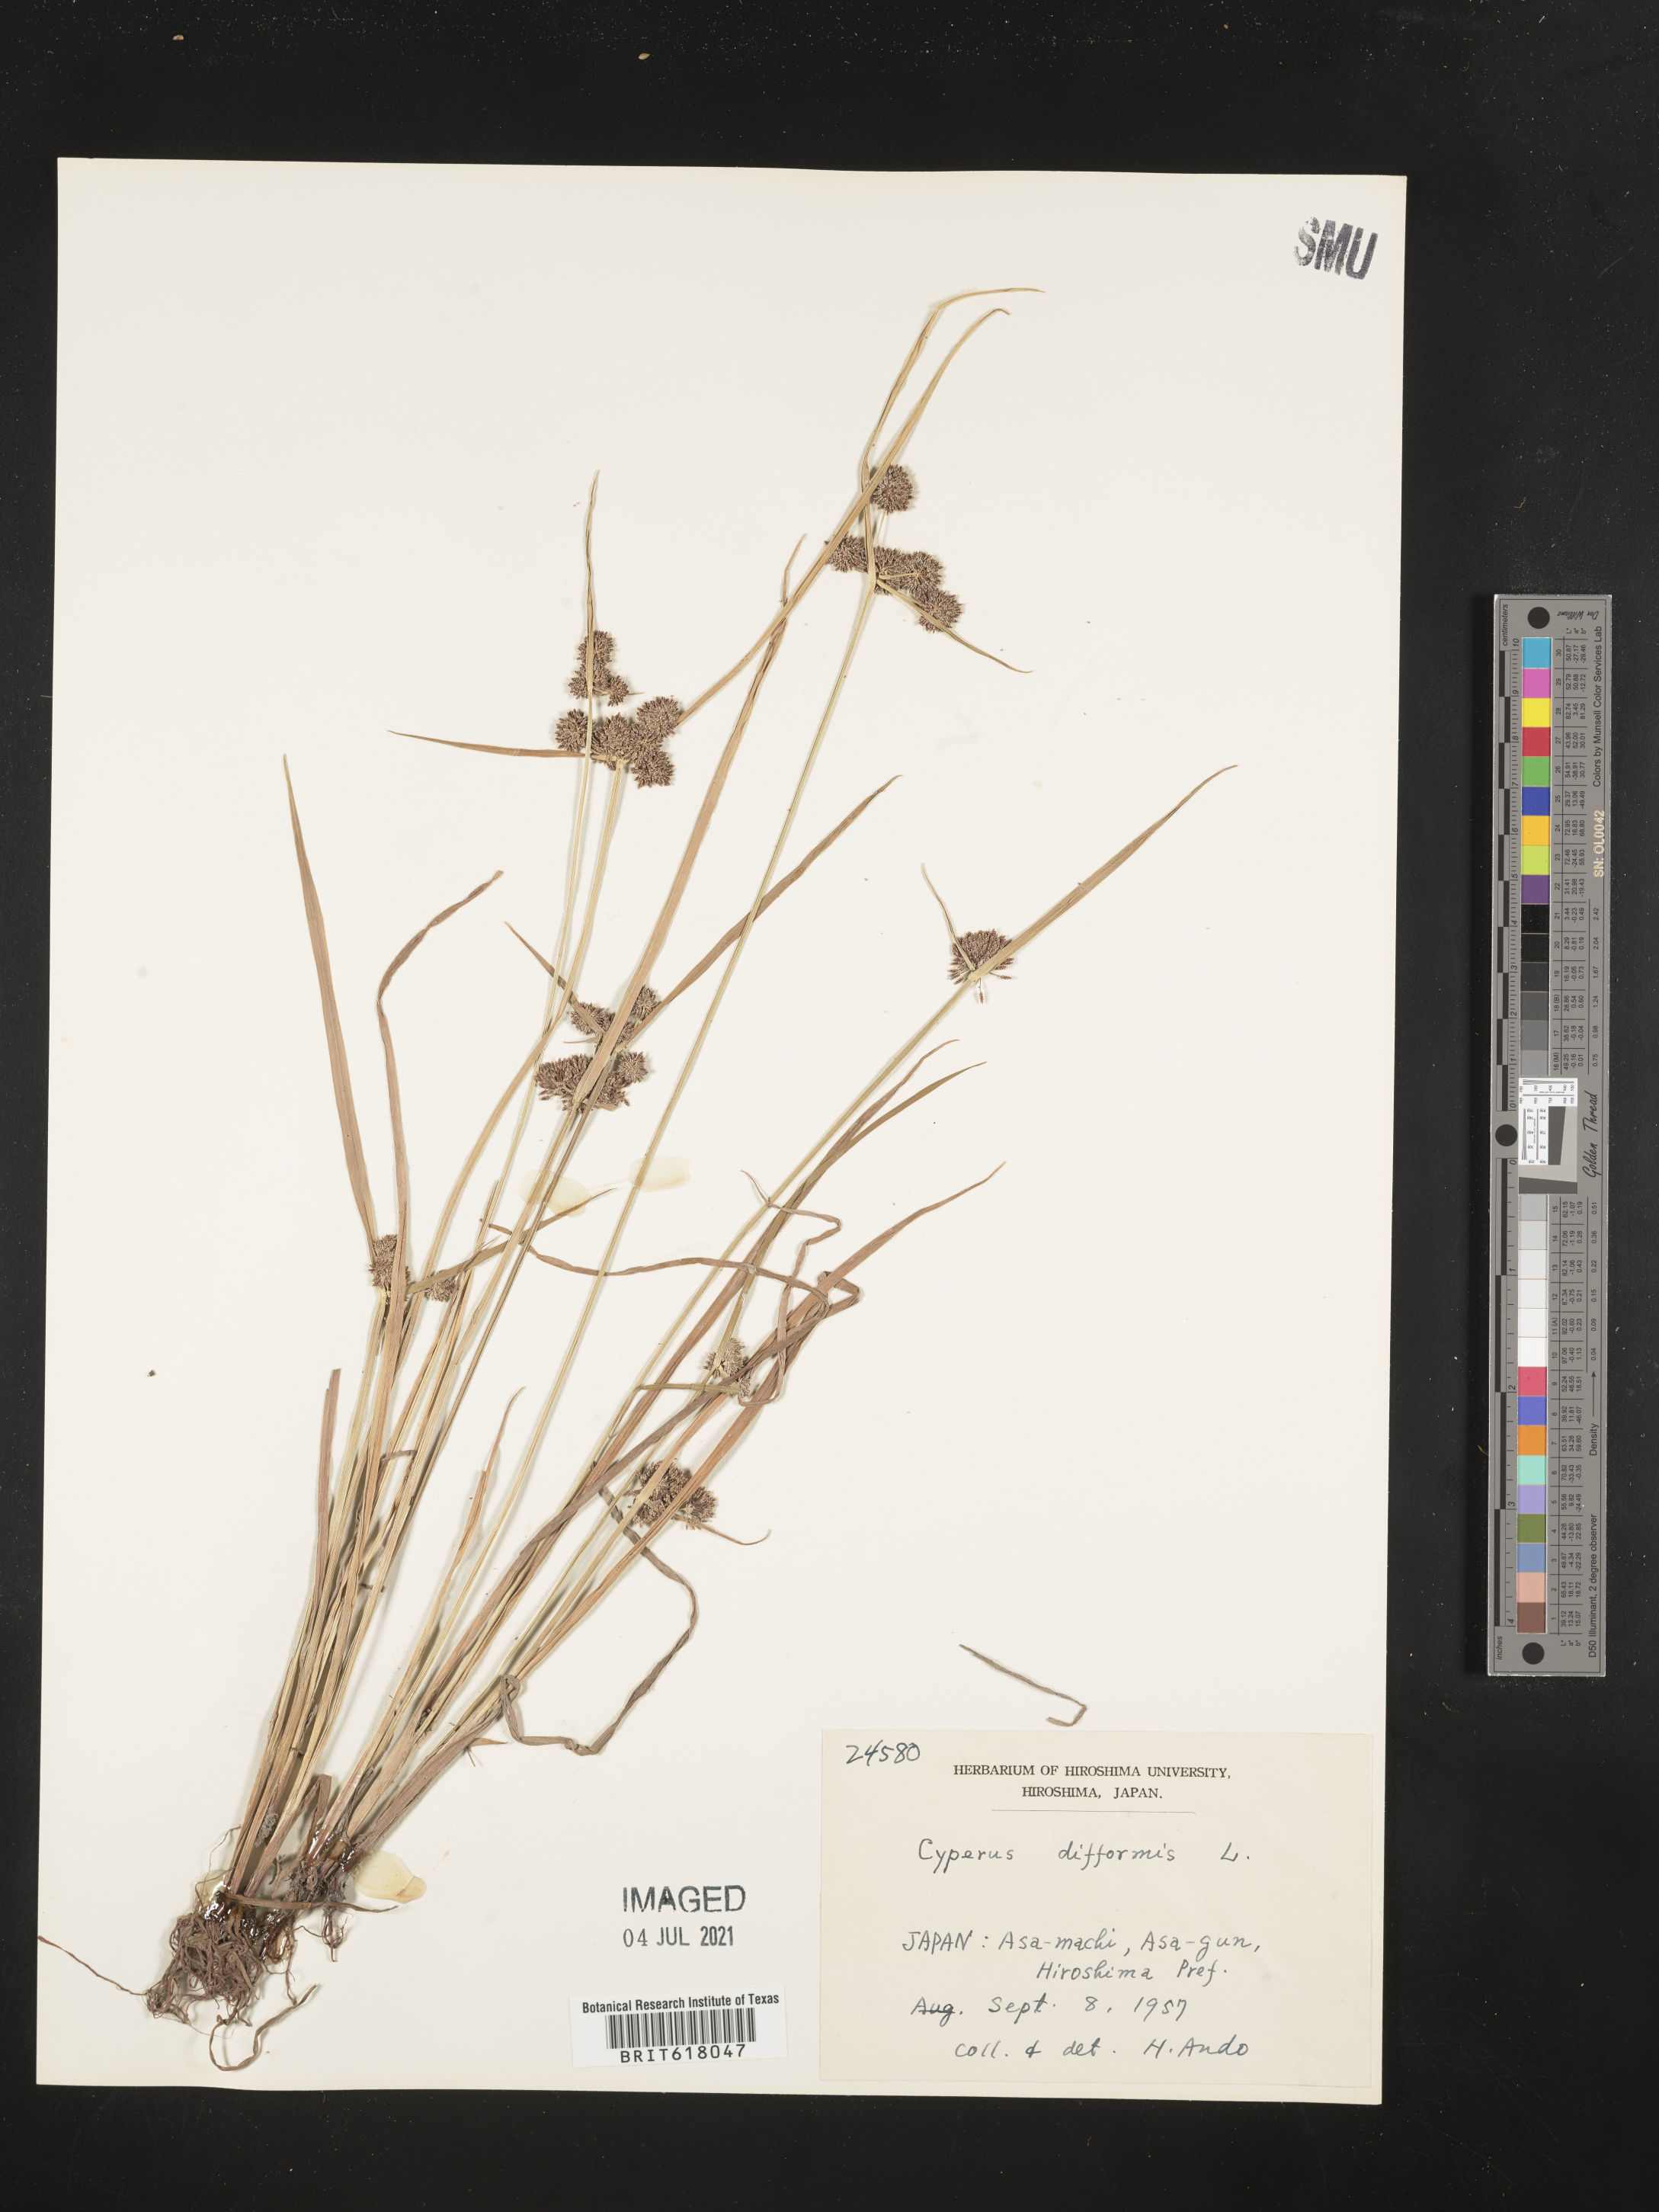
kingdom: Plantae
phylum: Tracheophyta
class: Liliopsida
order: Poales
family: Cyperaceae
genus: Cyperus
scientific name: Cyperus difformis
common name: Variable flatsedge
